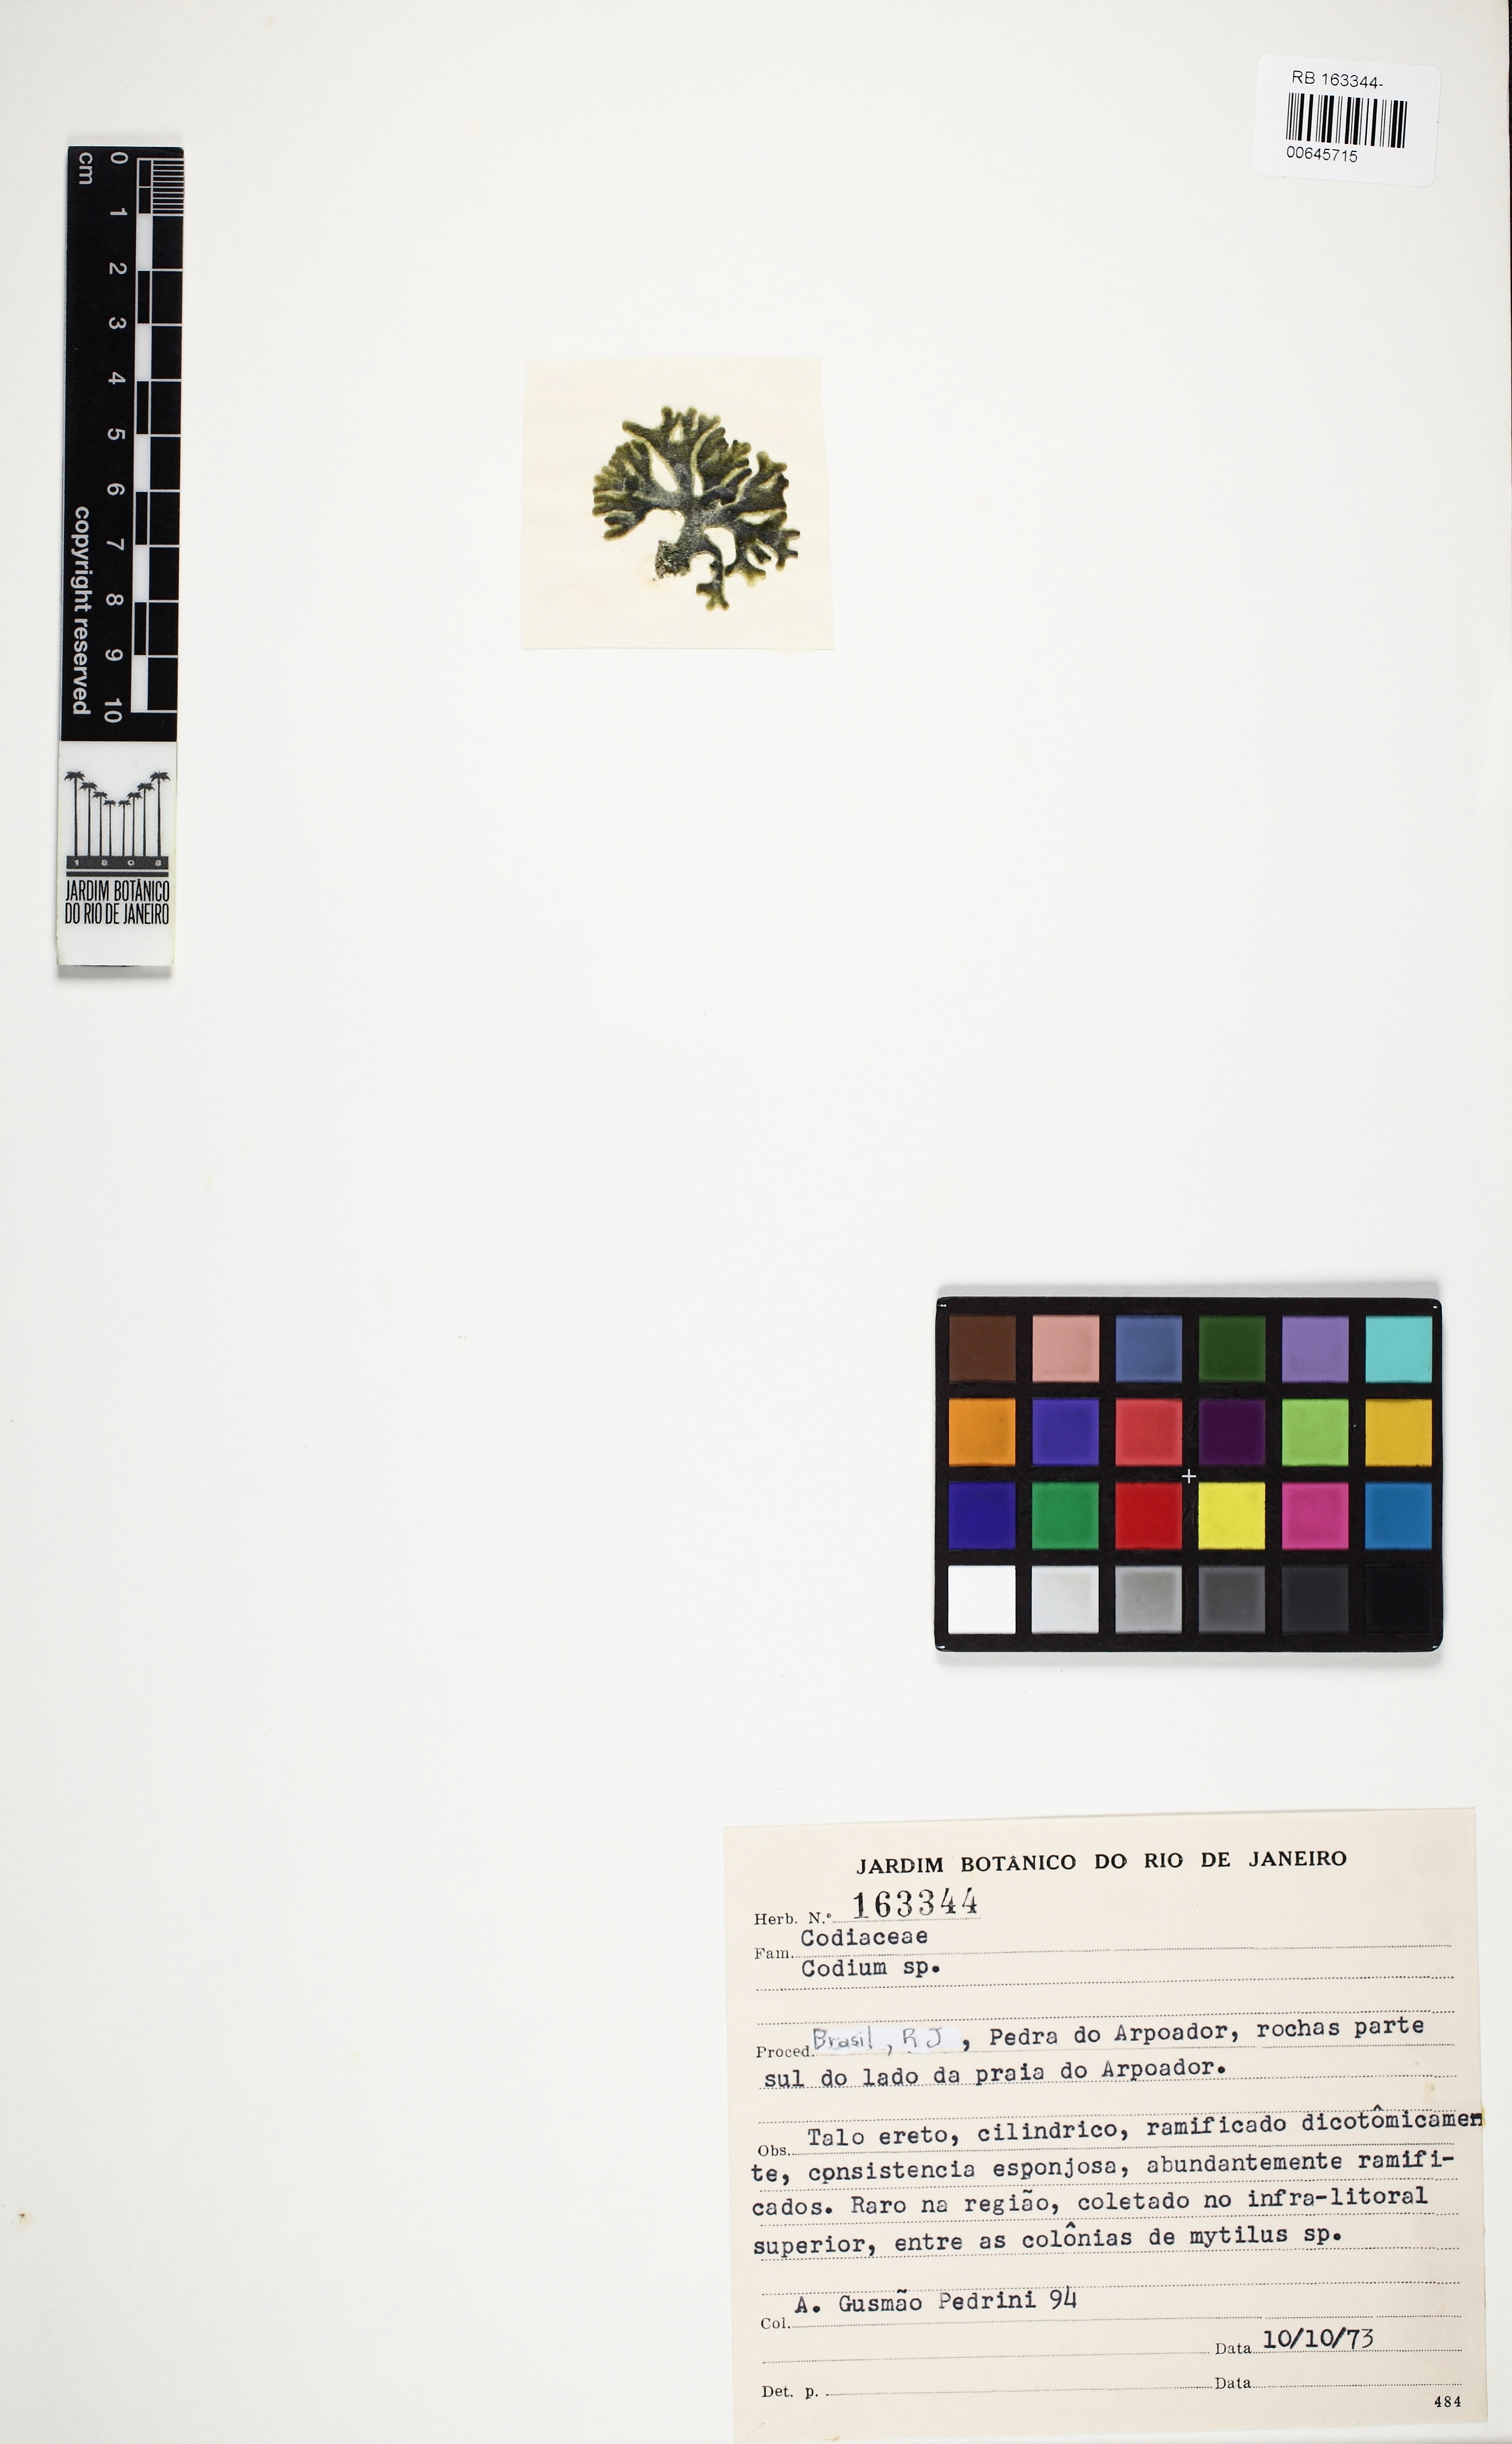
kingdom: Plantae
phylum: Chlorophyta
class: Ulvophyceae
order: Bryopsidales
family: Codiaceae
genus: Codium
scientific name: Codium
